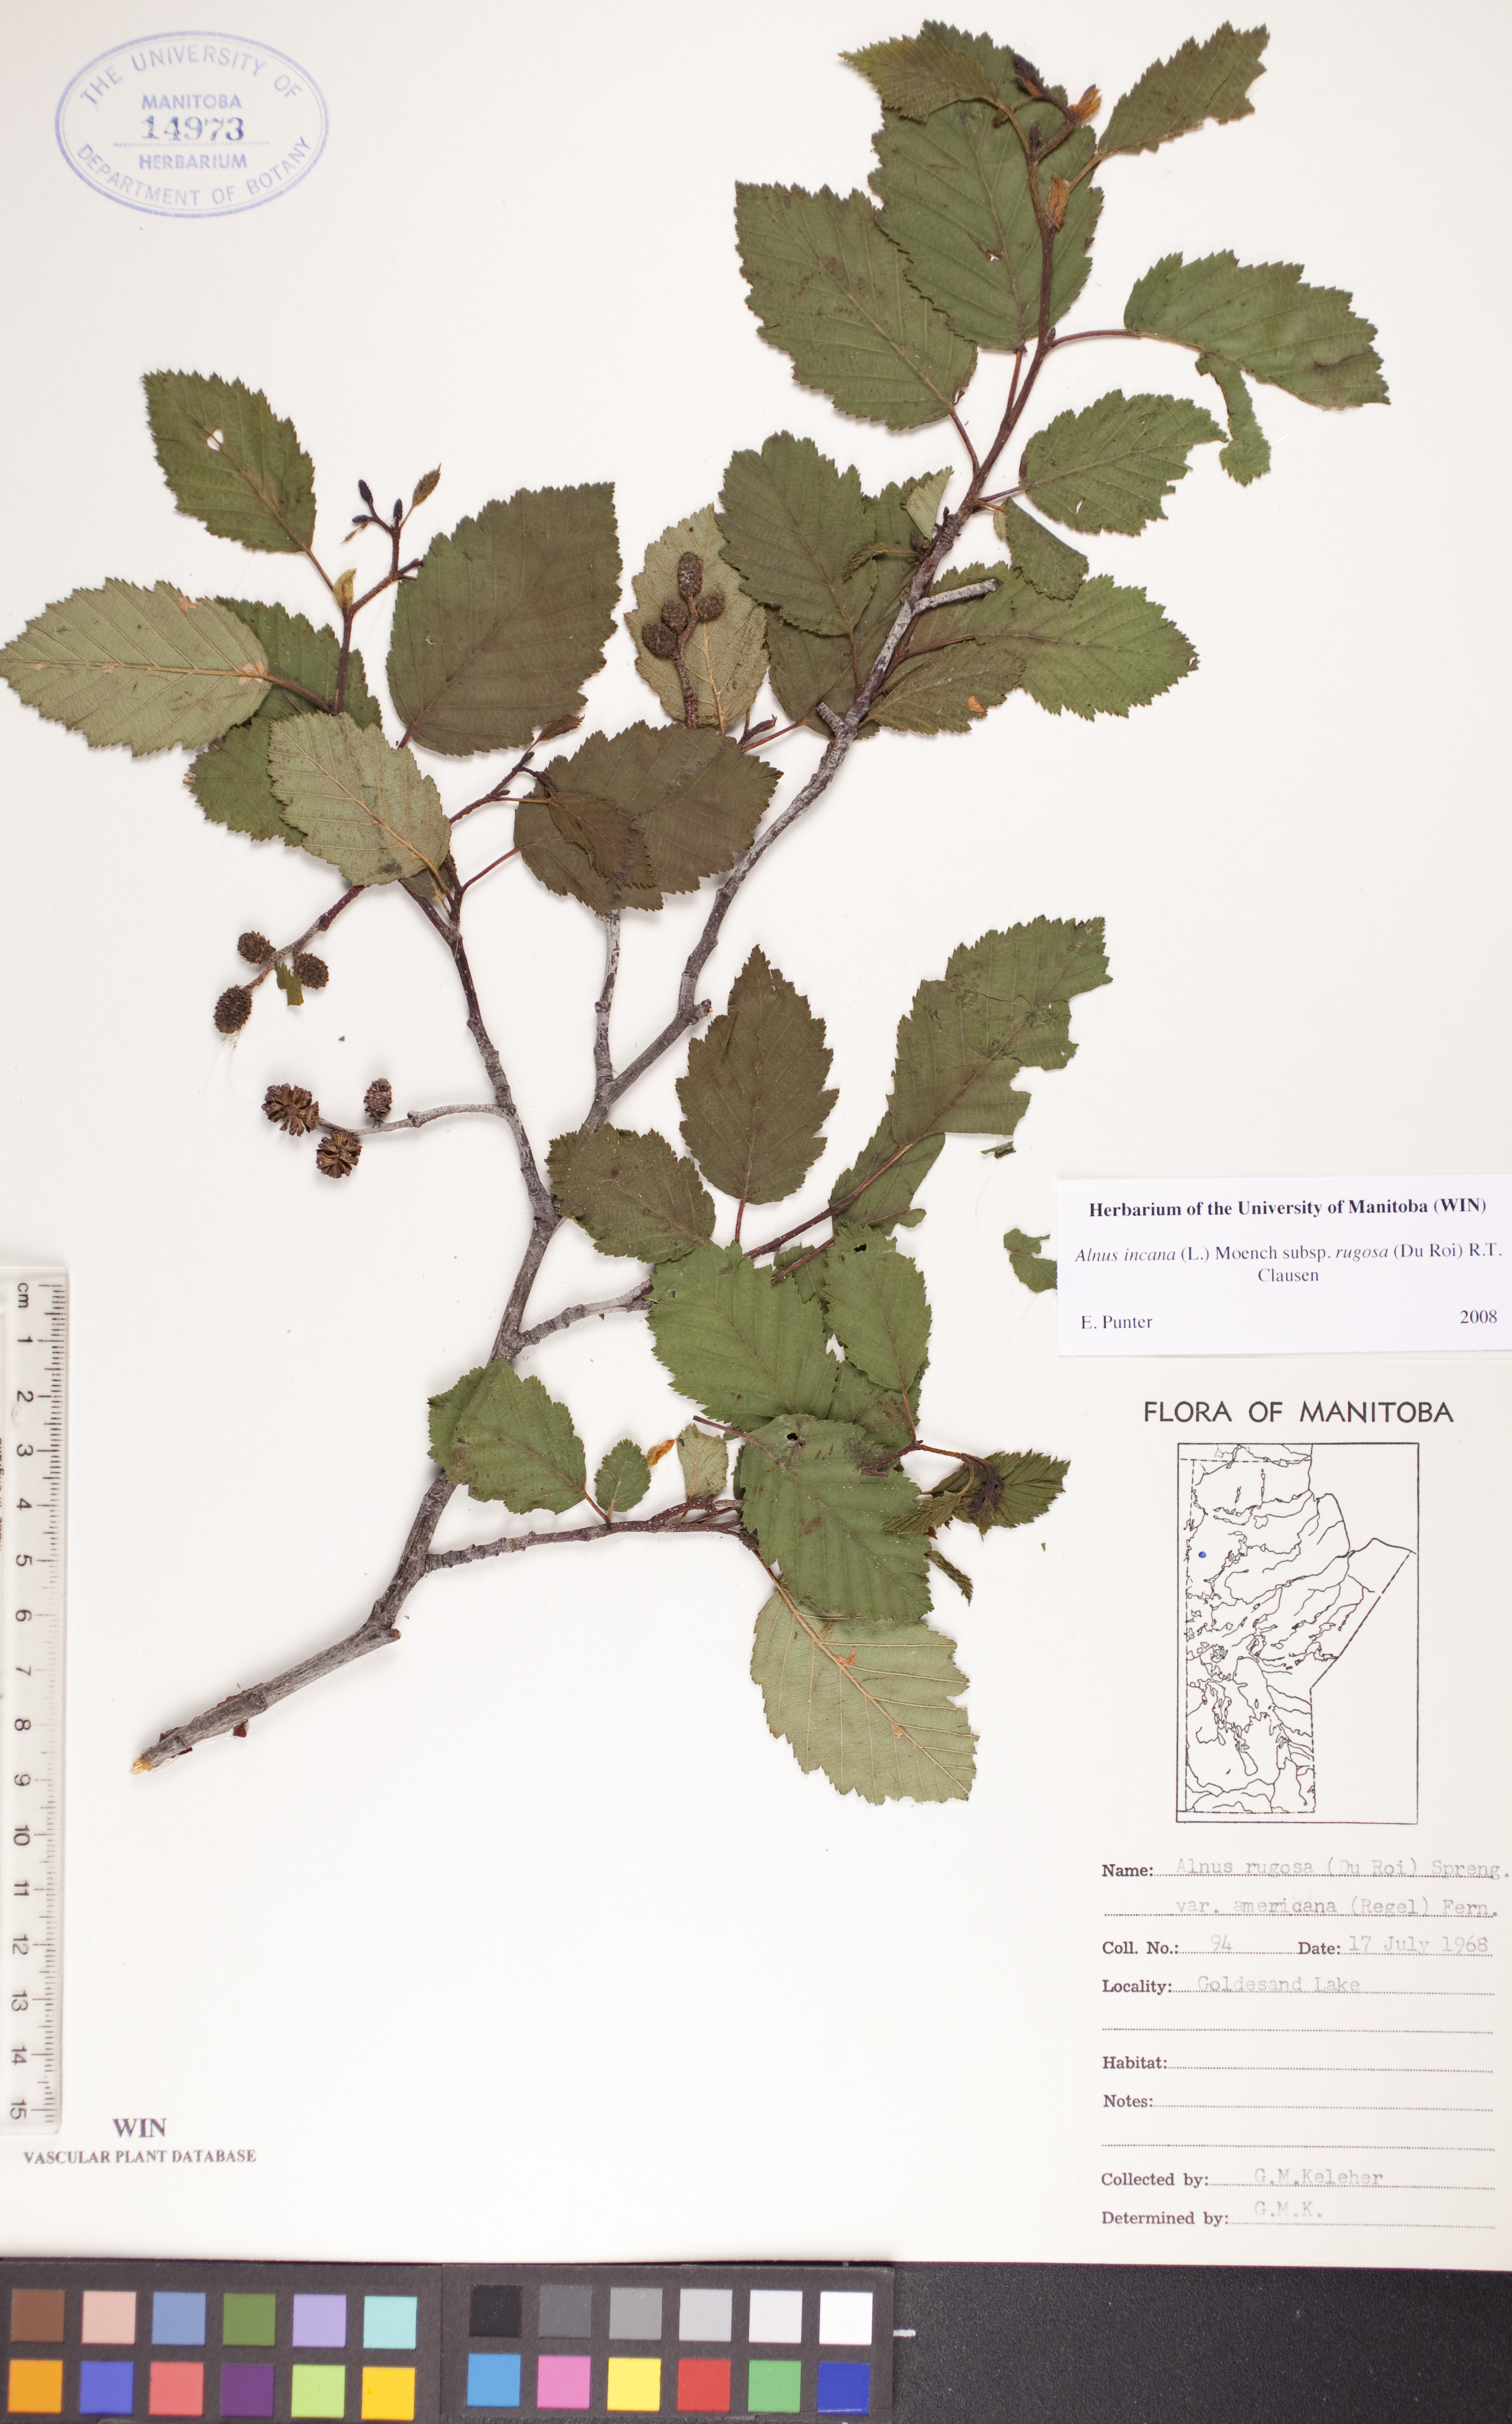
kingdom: Plantae
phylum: Tracheophyta
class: Magnoliopsida
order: Fagales
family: Betulaceae
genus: Alnus
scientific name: Alnus incana
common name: Grey alder
